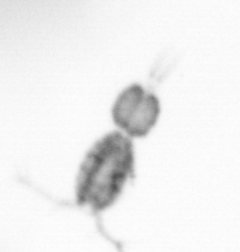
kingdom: Animalia
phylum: Arthropoda
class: Copepoda
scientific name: Copepoda
